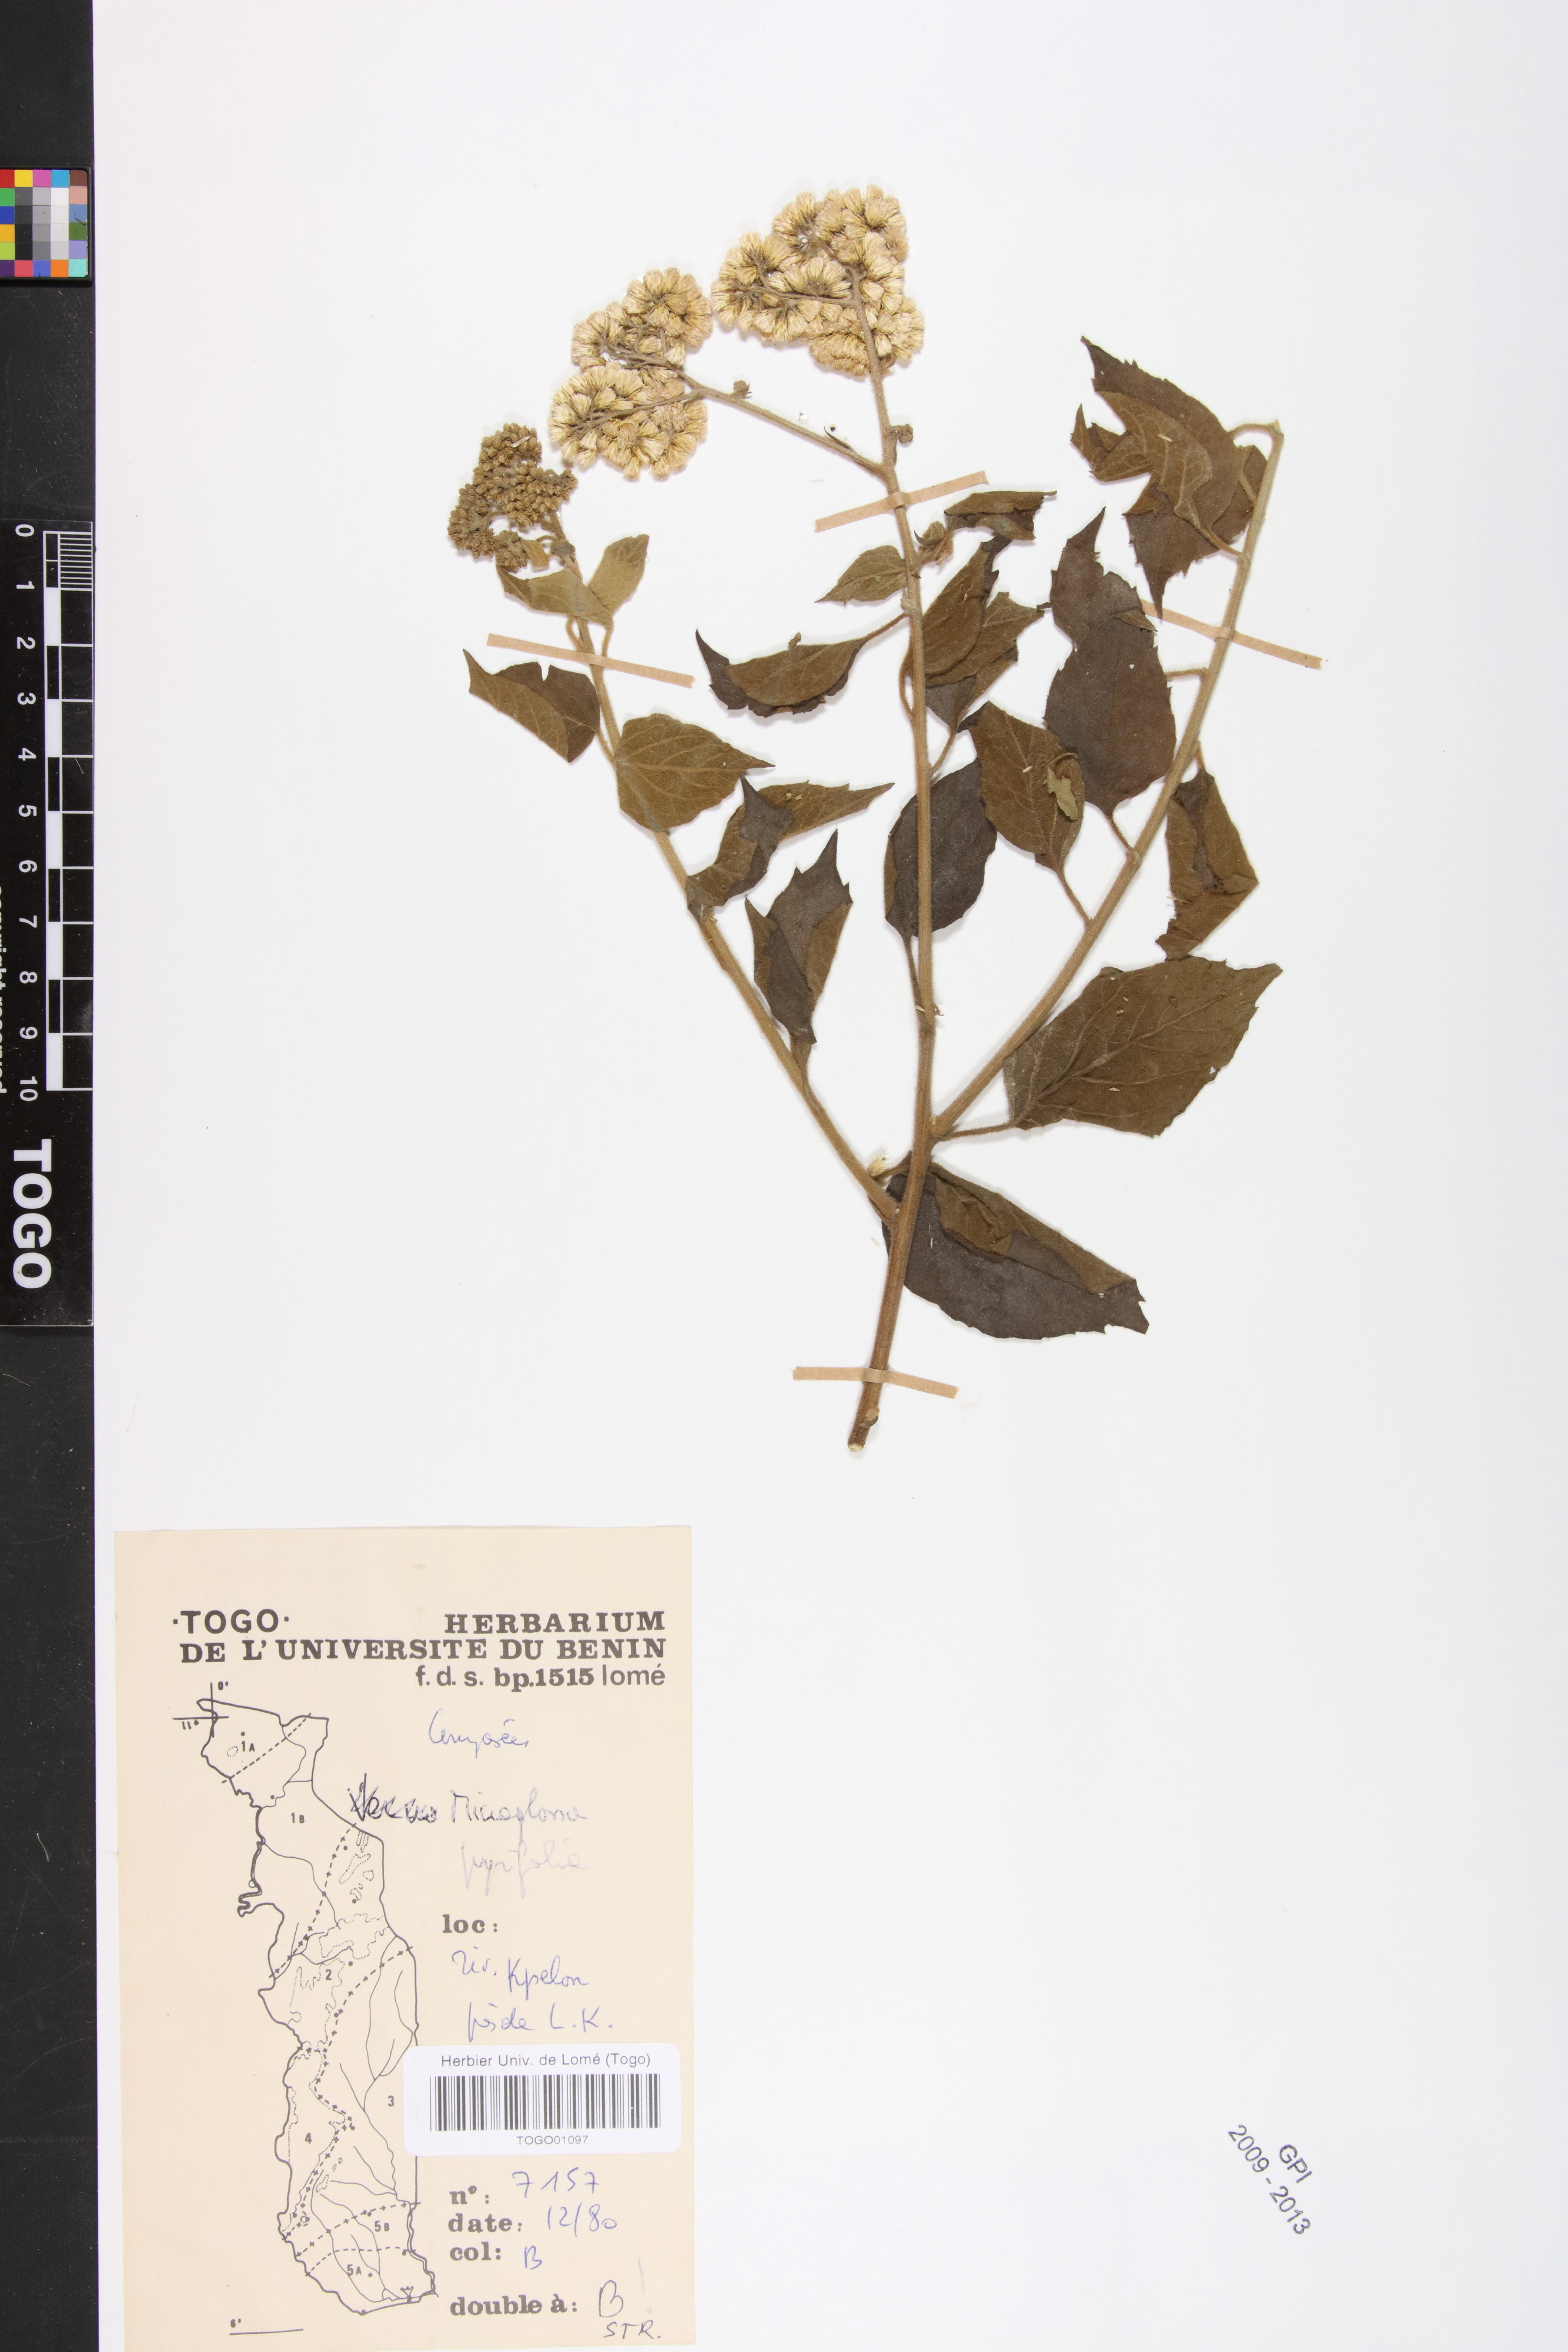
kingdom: Plantae
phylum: Tracheophyta
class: Magnoliopsida
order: Asterales
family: Asteraceae
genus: Microglossa
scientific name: Microglossa pyrifolia
